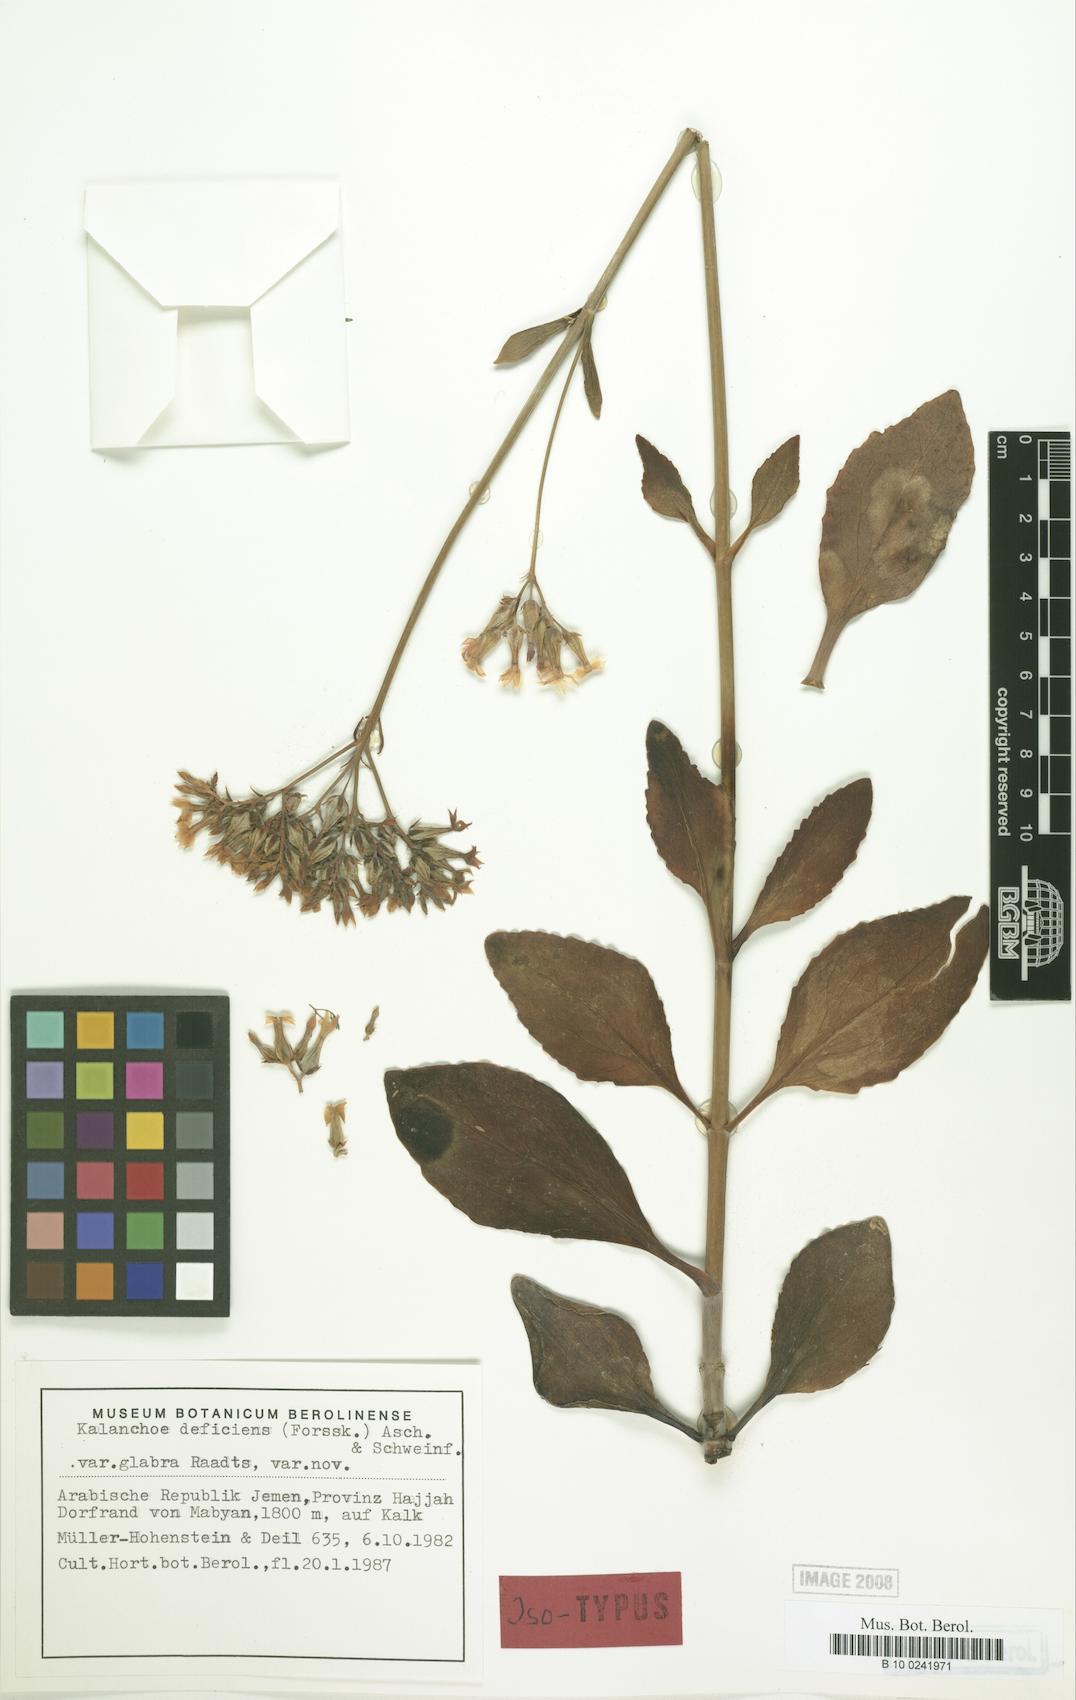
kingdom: Plantae
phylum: Tracheophyta
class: Magnoliopsida
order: Saxifragales
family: Crassulaceae
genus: Kalanchoe
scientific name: Kalanchoe deficiens
